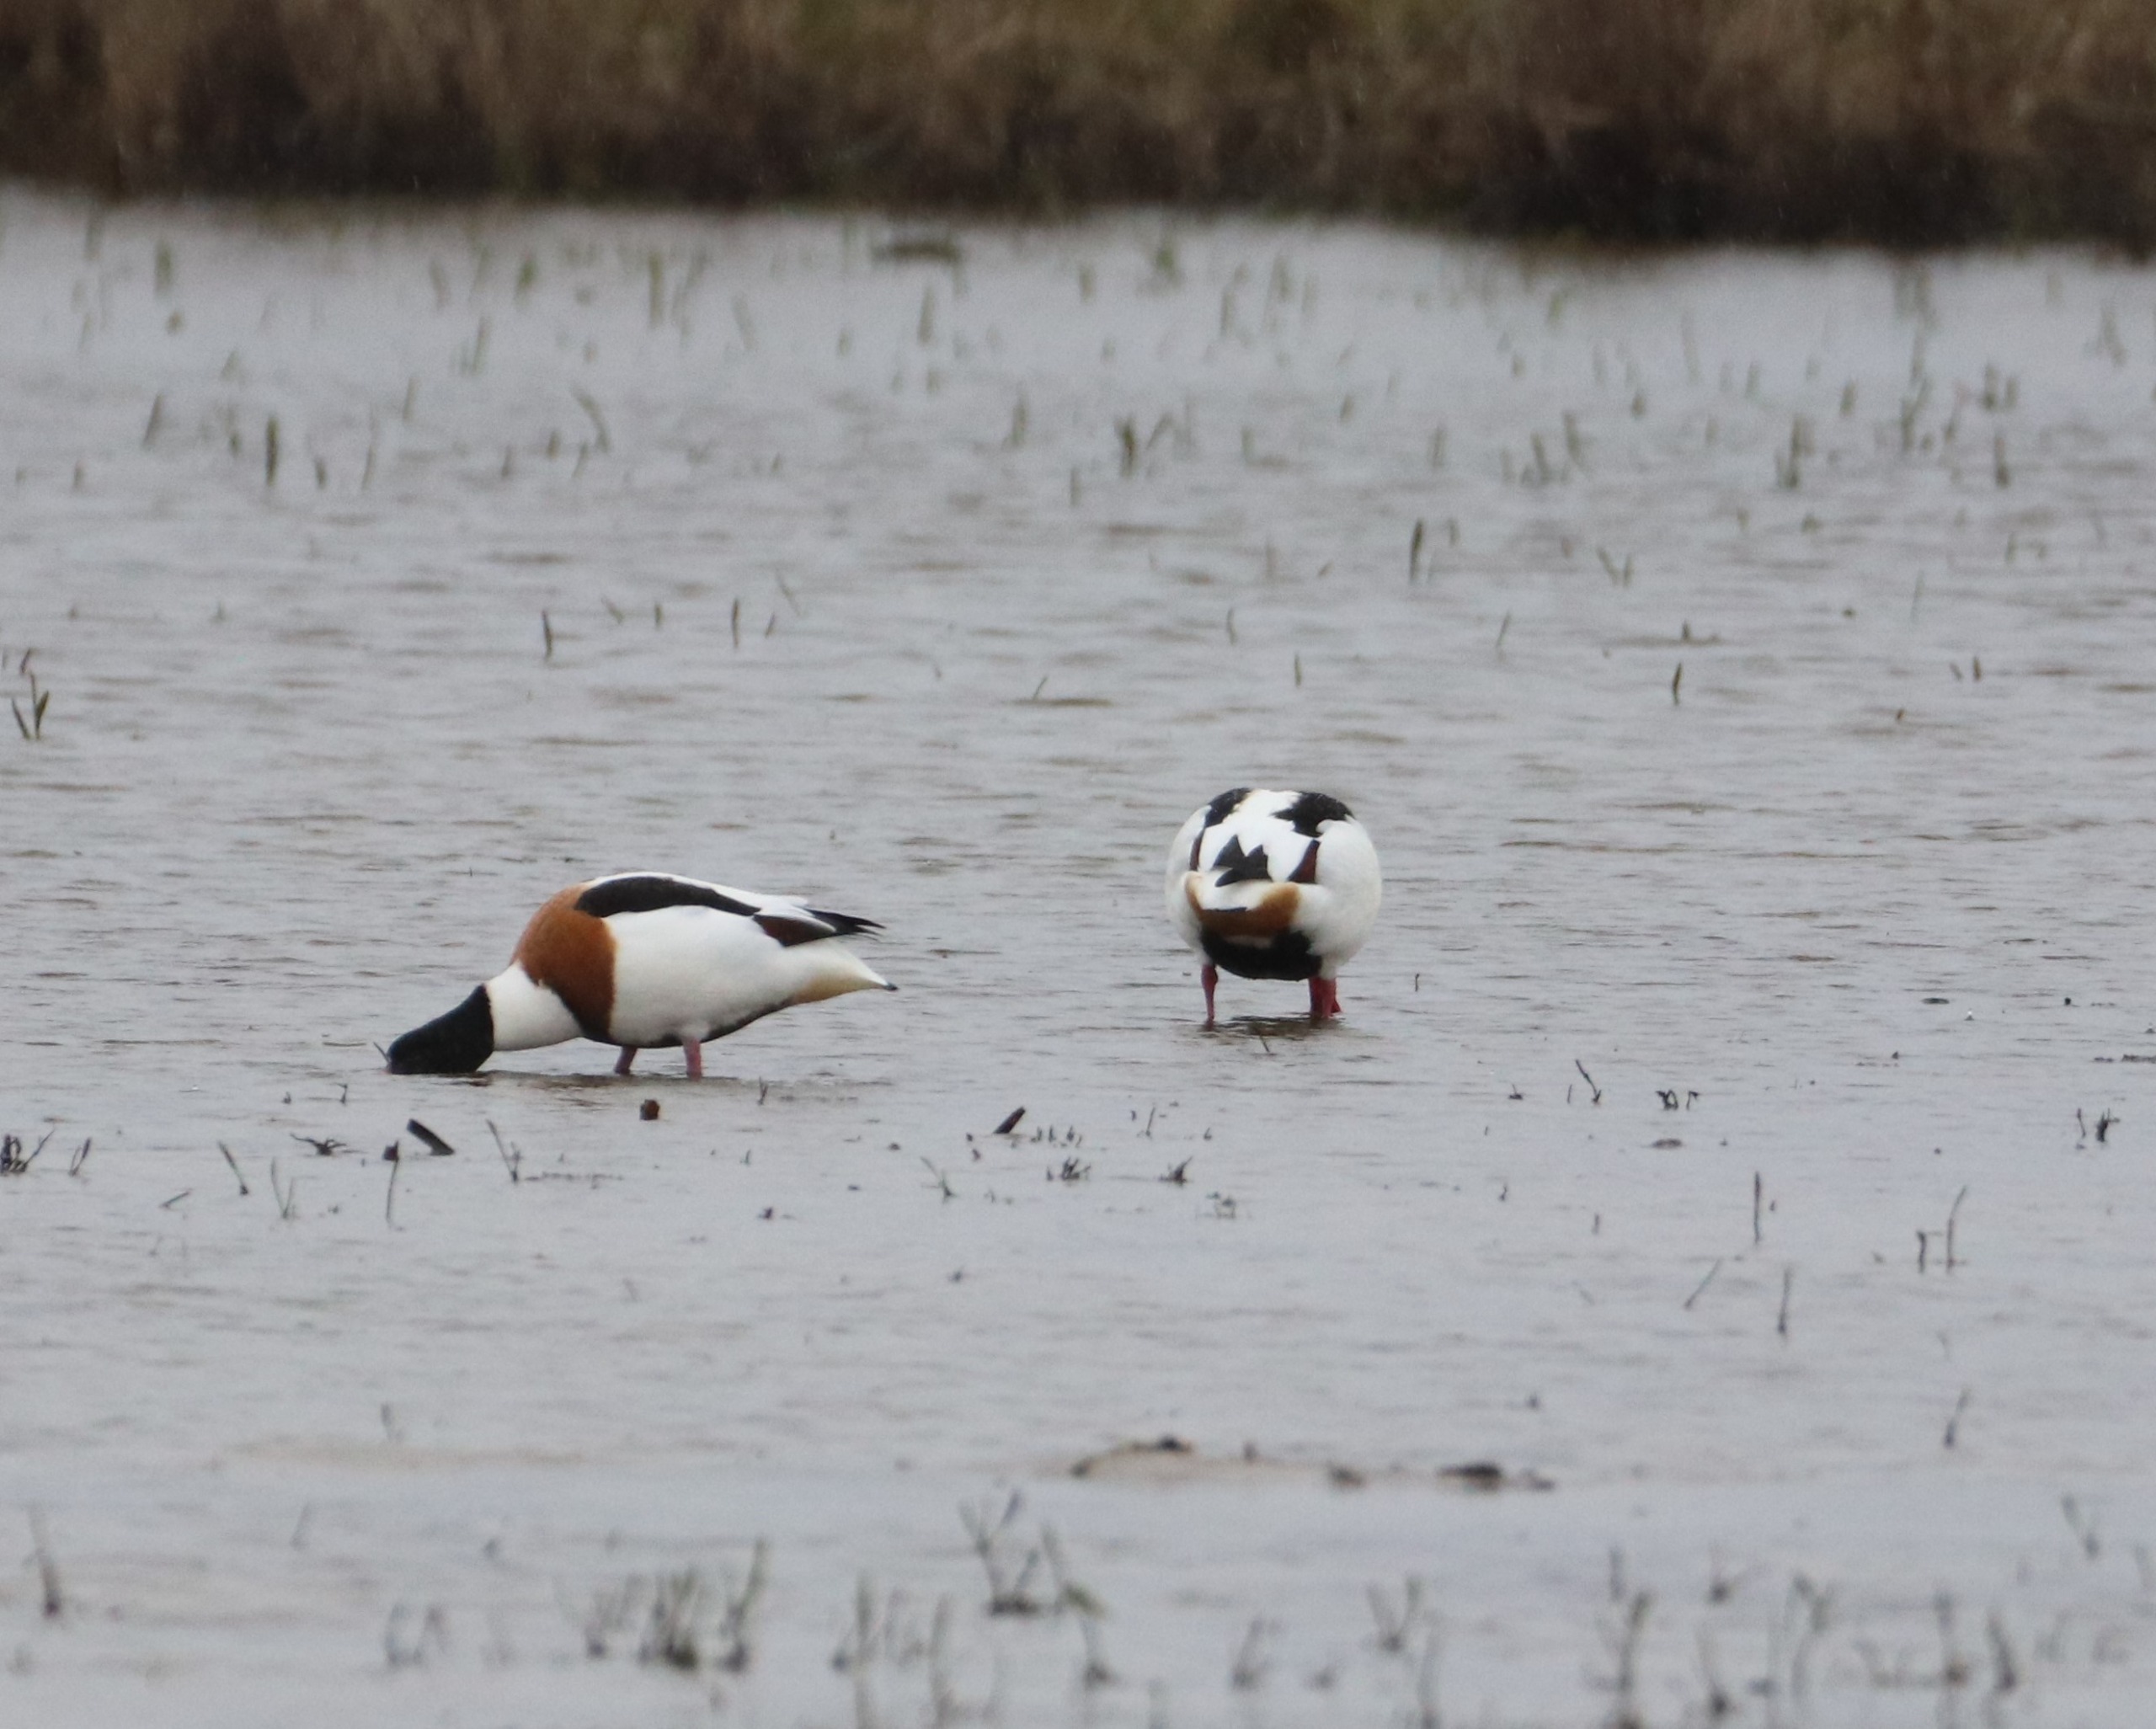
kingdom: Animalia
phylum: Chordata
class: Aves
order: Anseriformes
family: Anatidae
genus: Tadorna
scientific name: Tadorna tadorna
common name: Gravand
